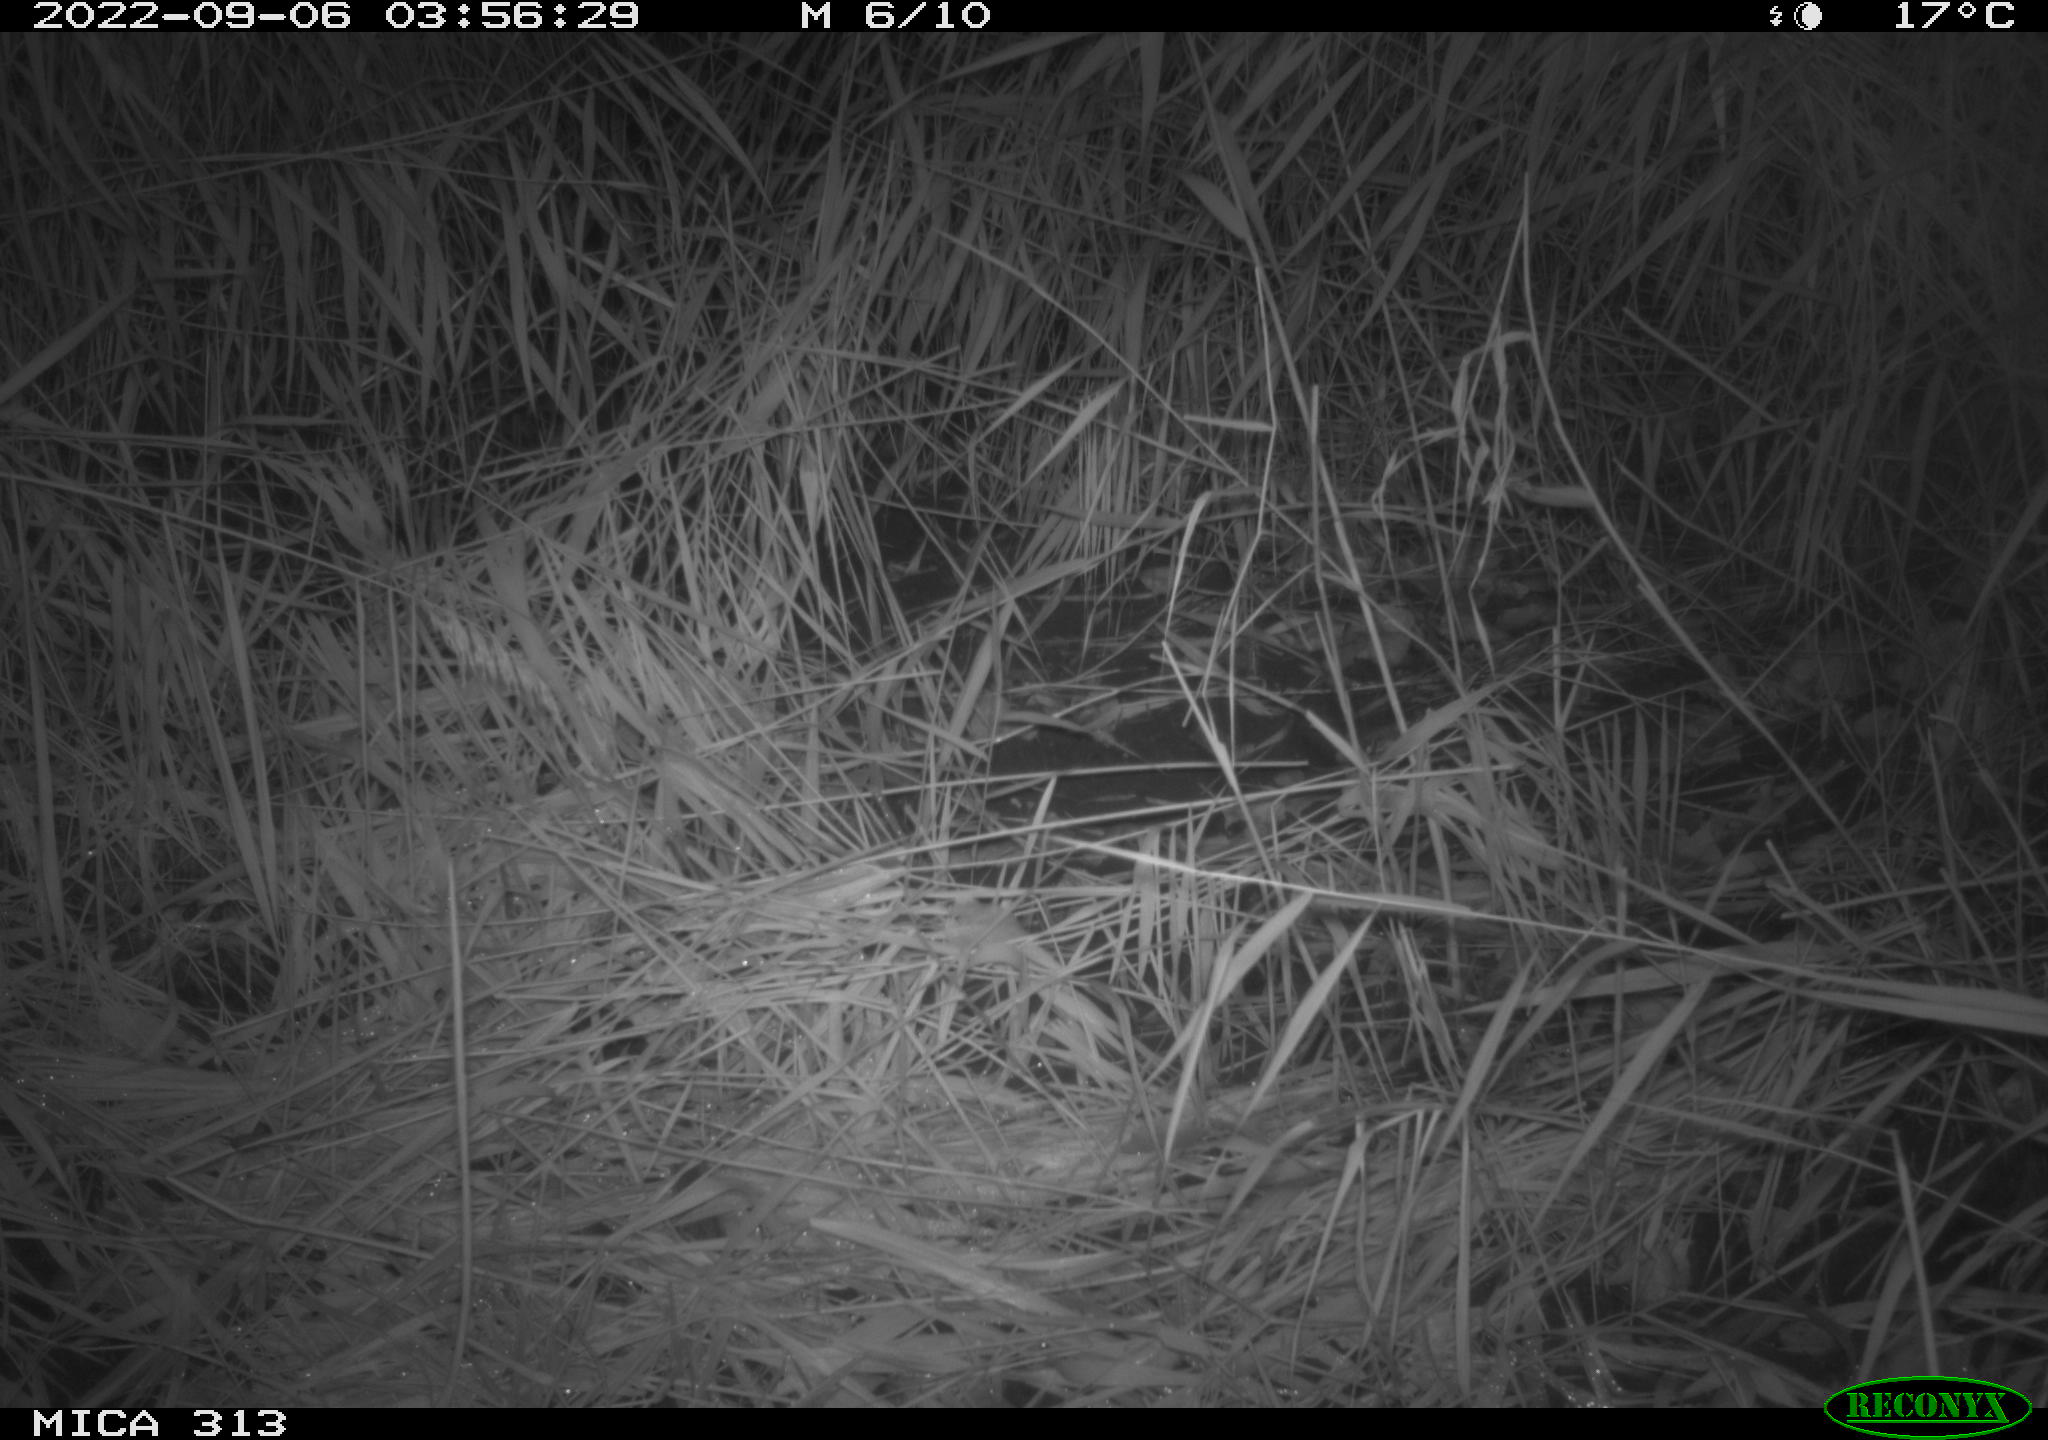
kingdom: Animalia
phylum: Chordata
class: Mammalia
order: Rodentia
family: Muridae
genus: Rattus
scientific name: Rattus norvegicus
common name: Brown rat
